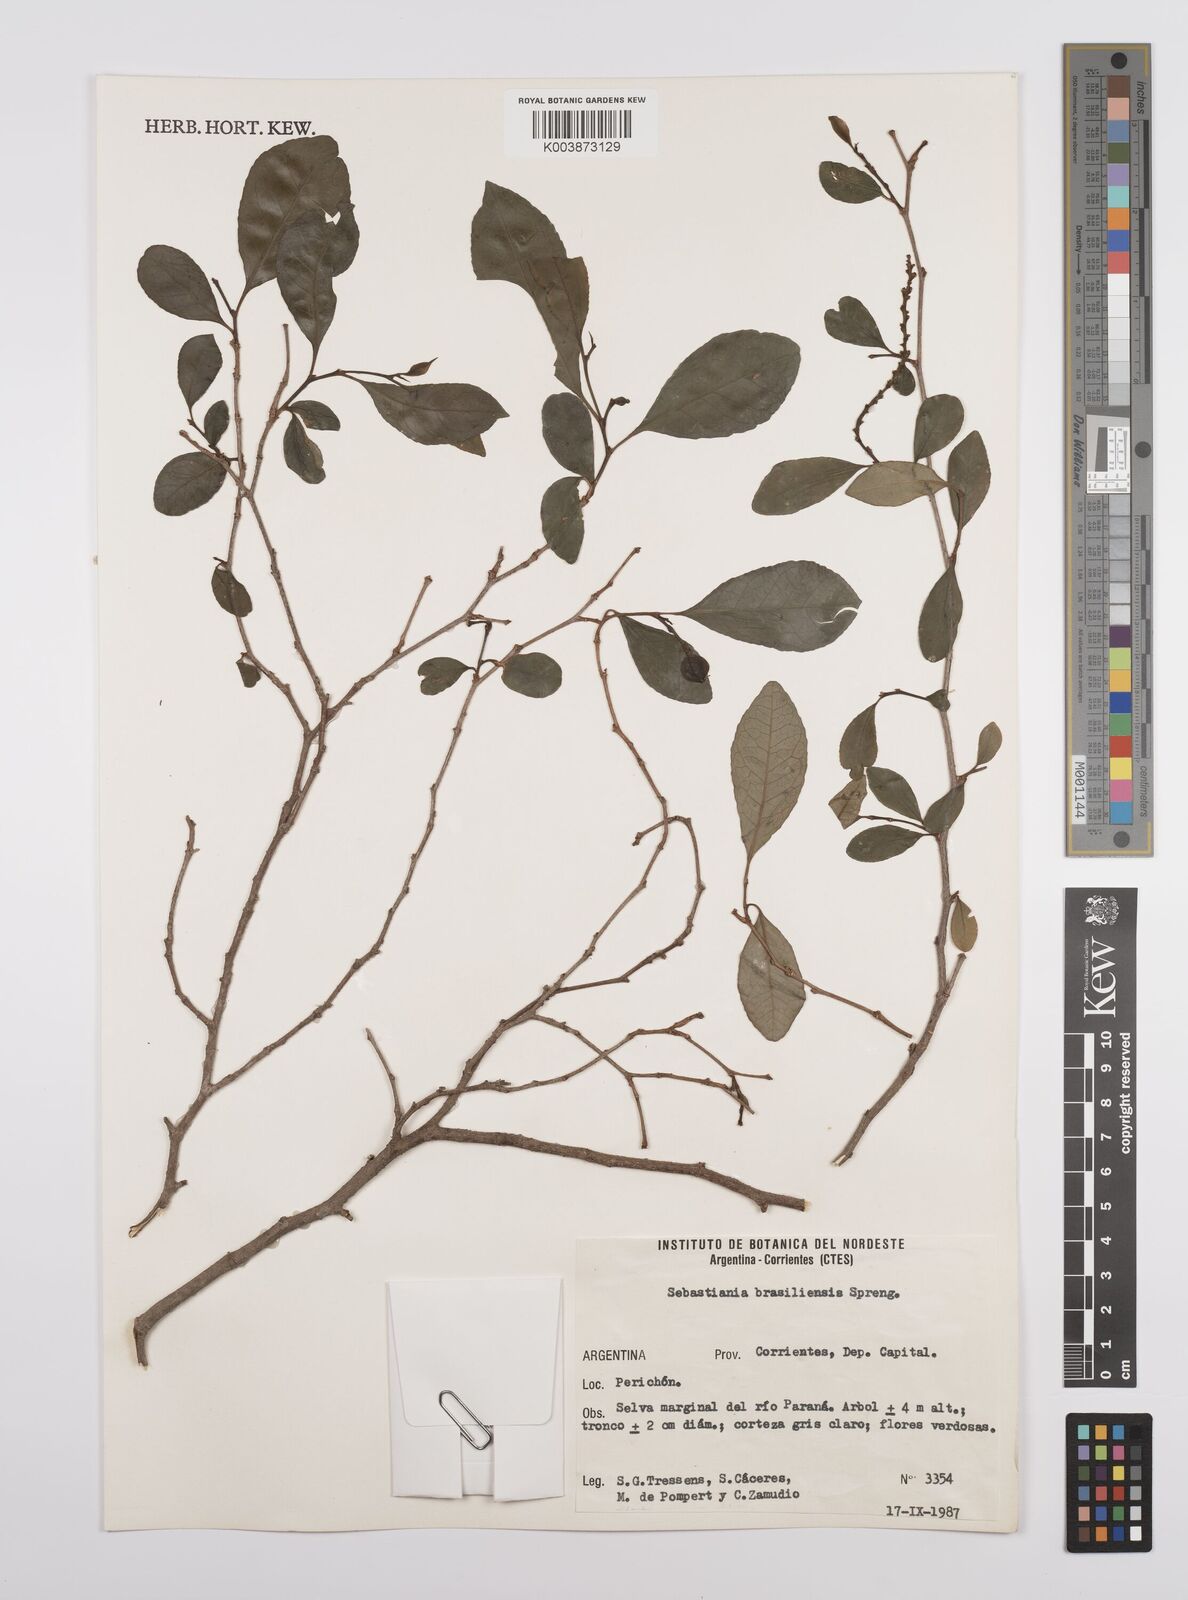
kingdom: Plantae
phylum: Tracheophyta
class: Magnoliopsida
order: Malpighiales
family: Euphorbiaceae
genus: Sebastiania
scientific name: Sebastiania brasiliensis
